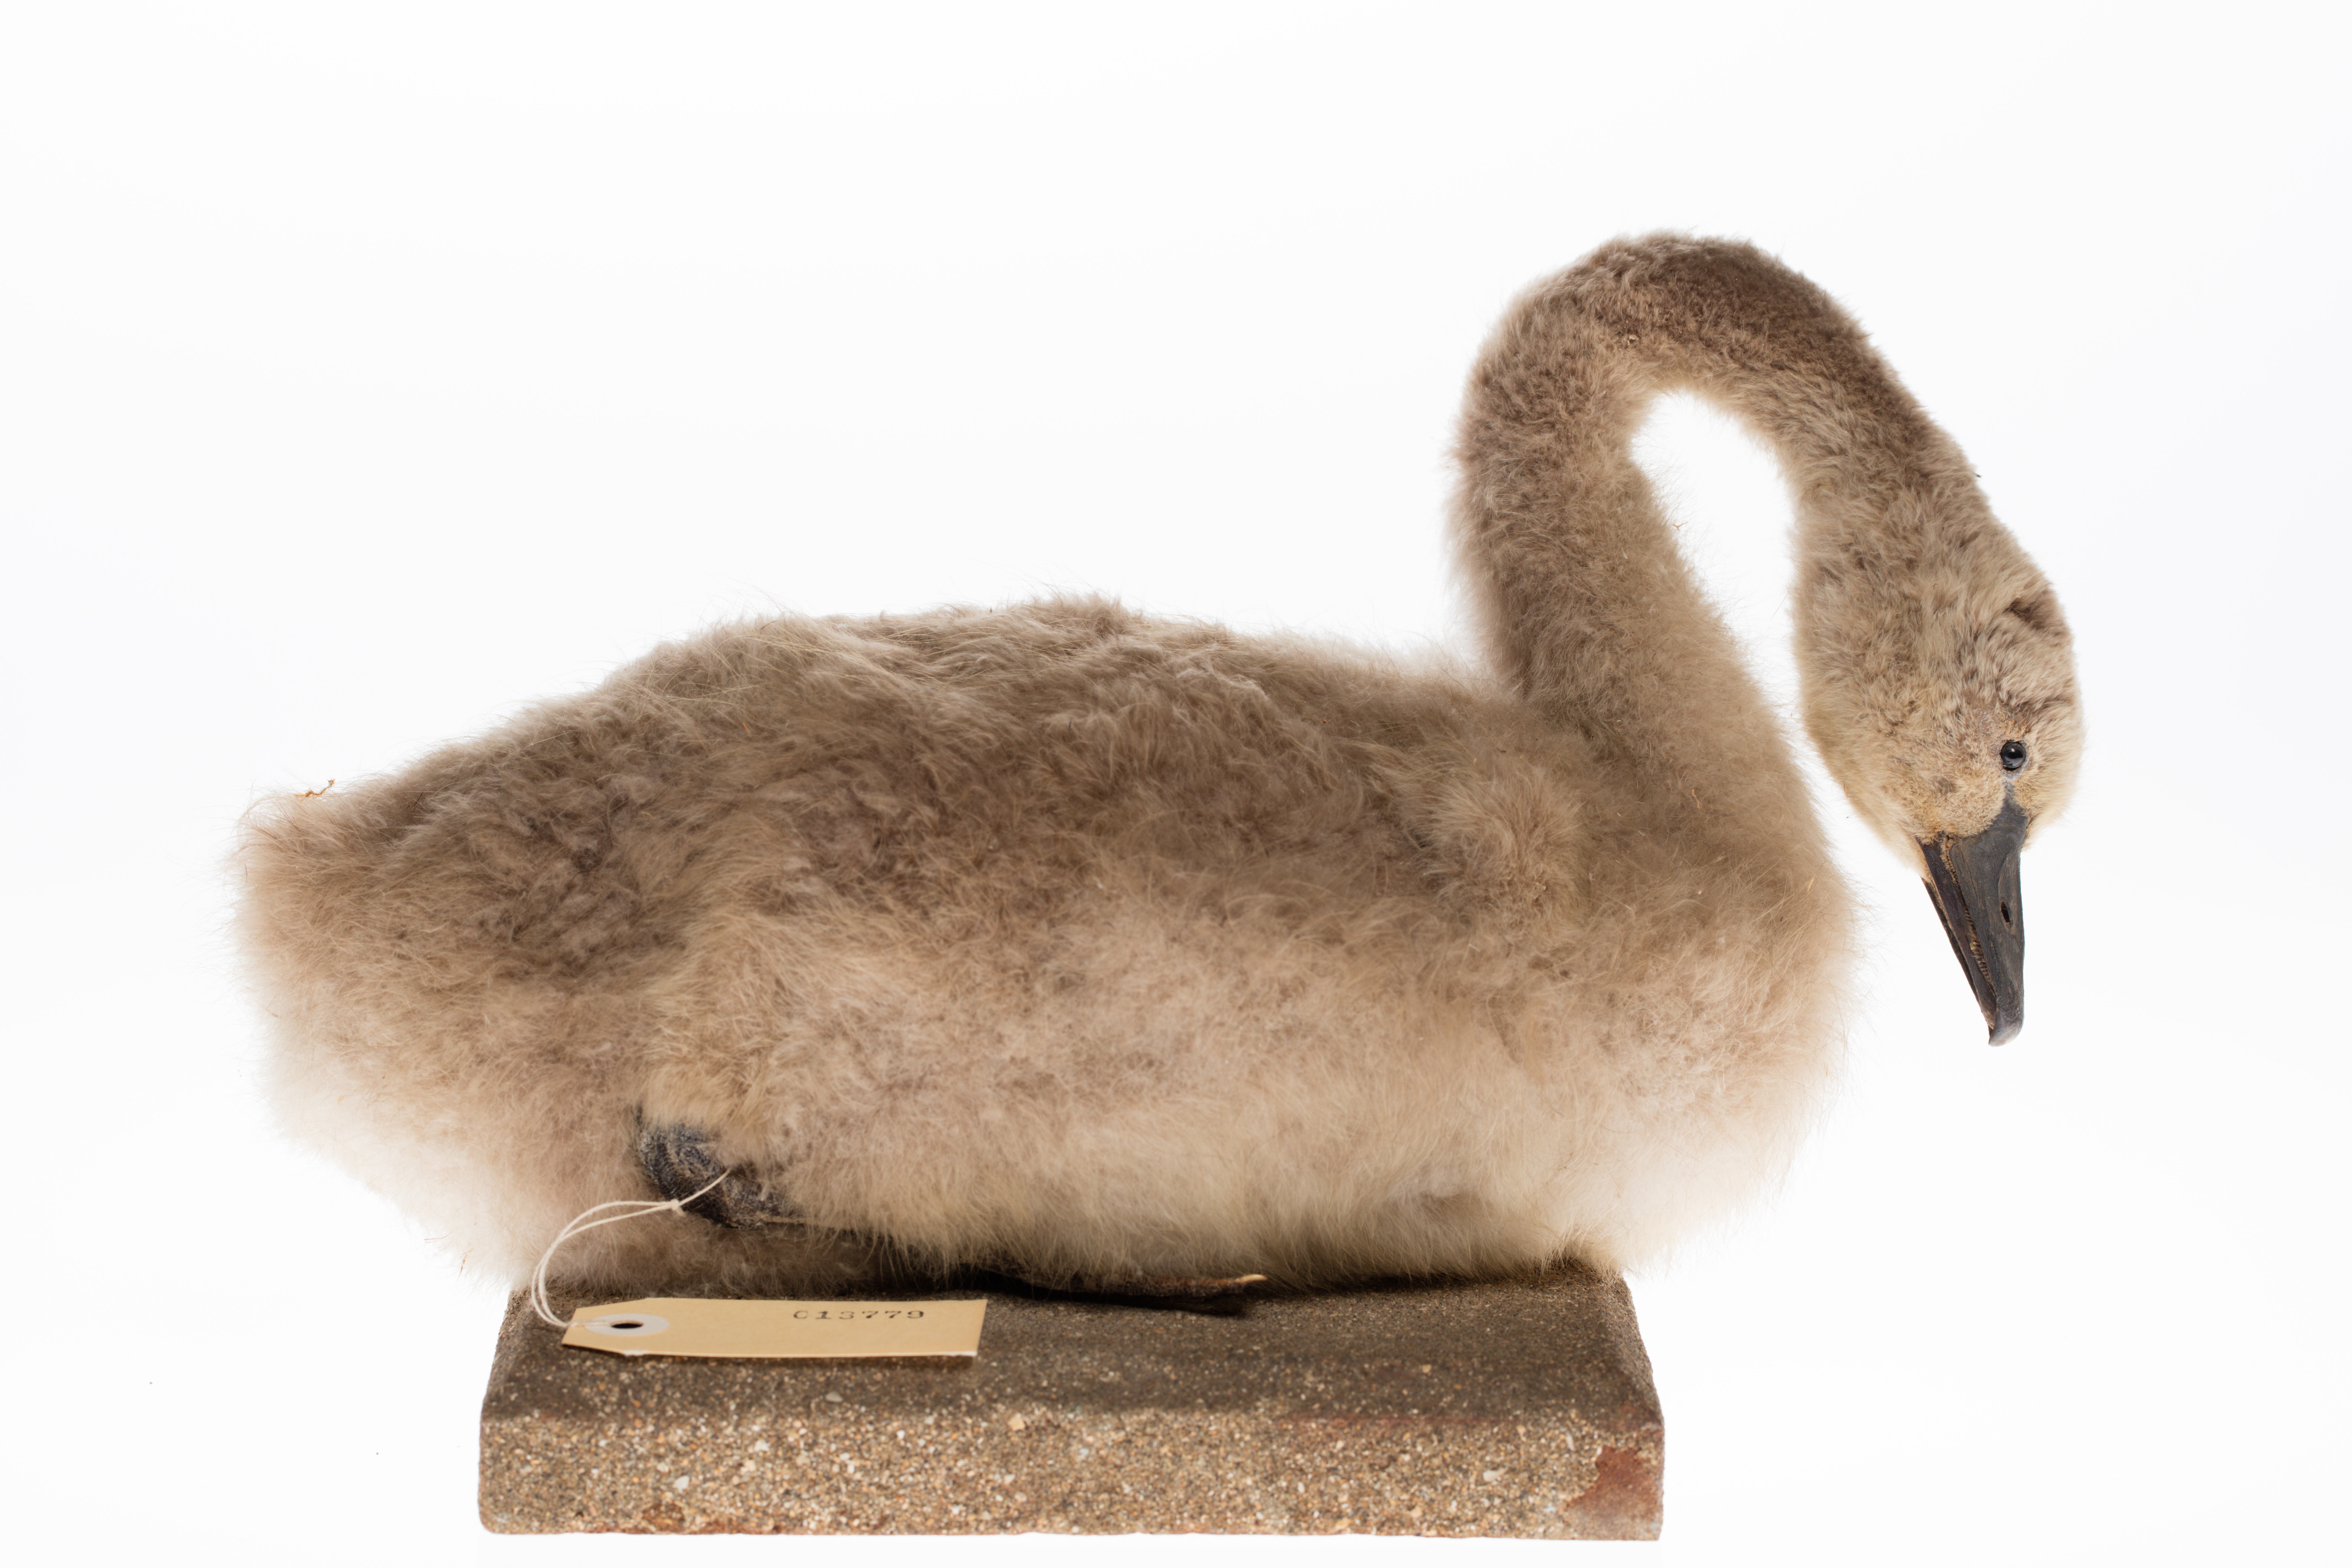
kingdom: Animalia
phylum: Chordata
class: Aves
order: Anseriformes
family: Anatidae
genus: Cygnus
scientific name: Cygnus atratus
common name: Black swan
